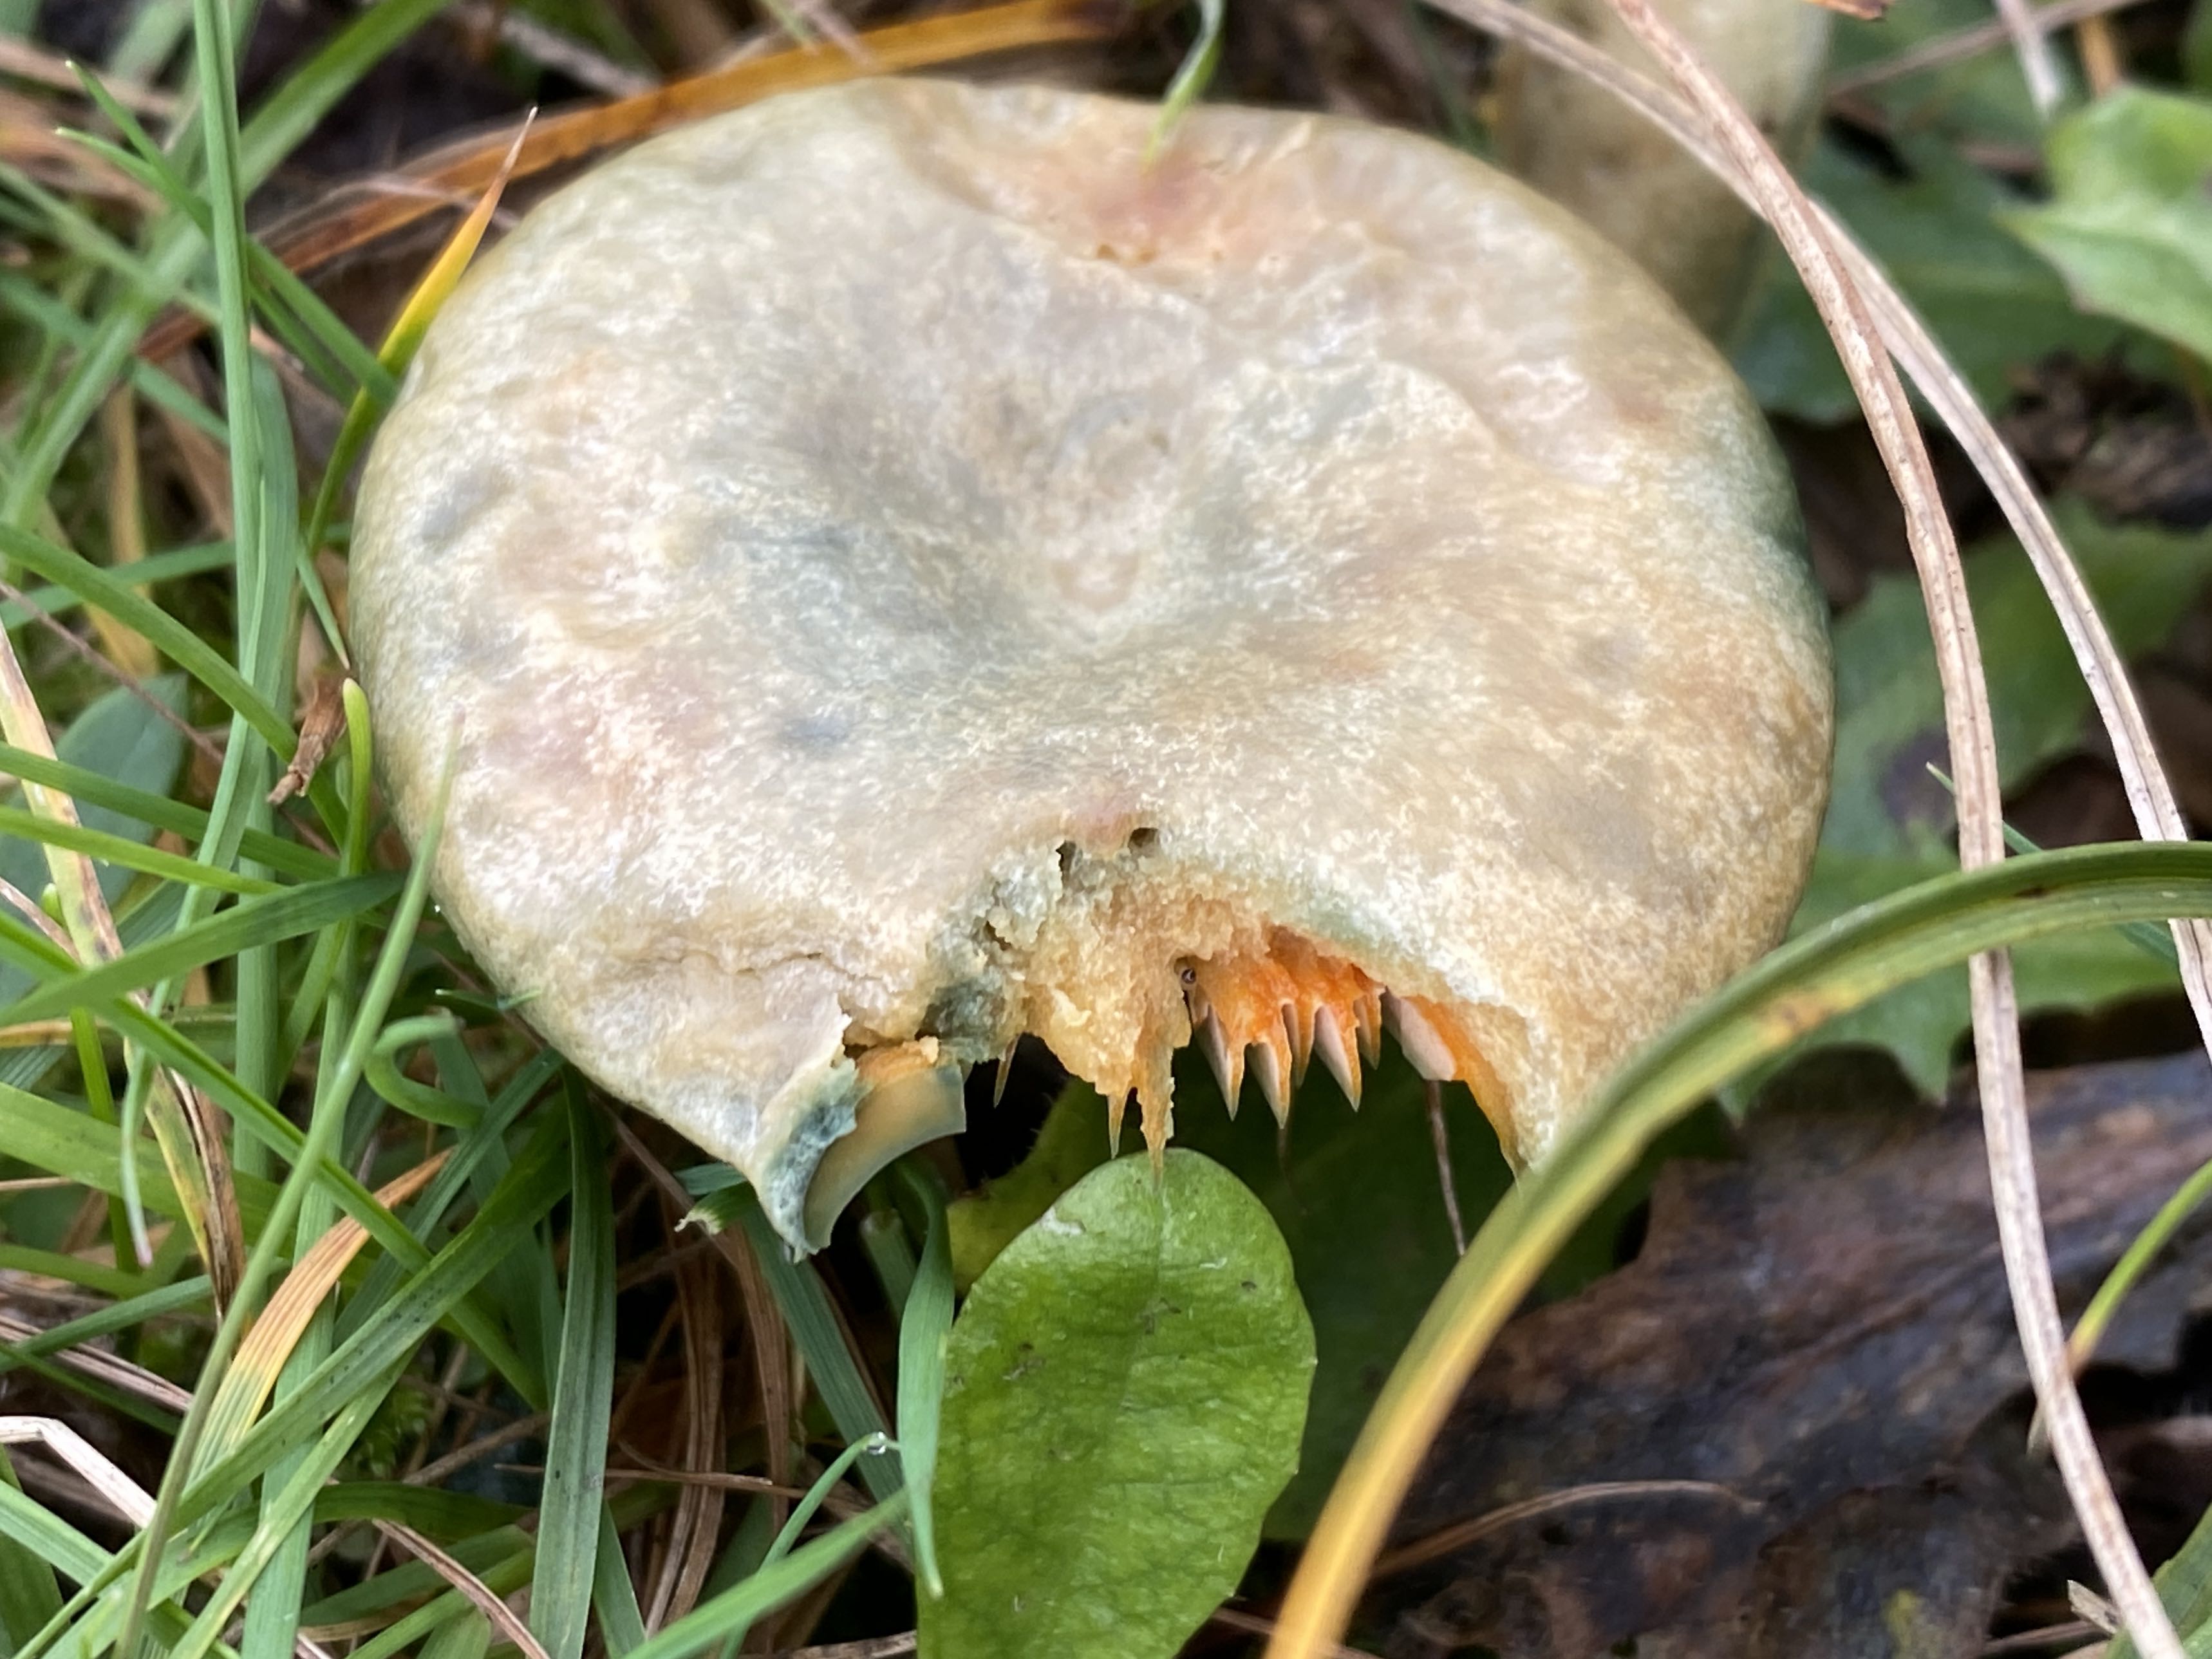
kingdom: Fungi
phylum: Basidiomycota
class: Agaricomycetes
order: Russulales
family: Russulaceae
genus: Lactarius
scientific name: Lactarius deterrimus
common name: gran-mælkehat
